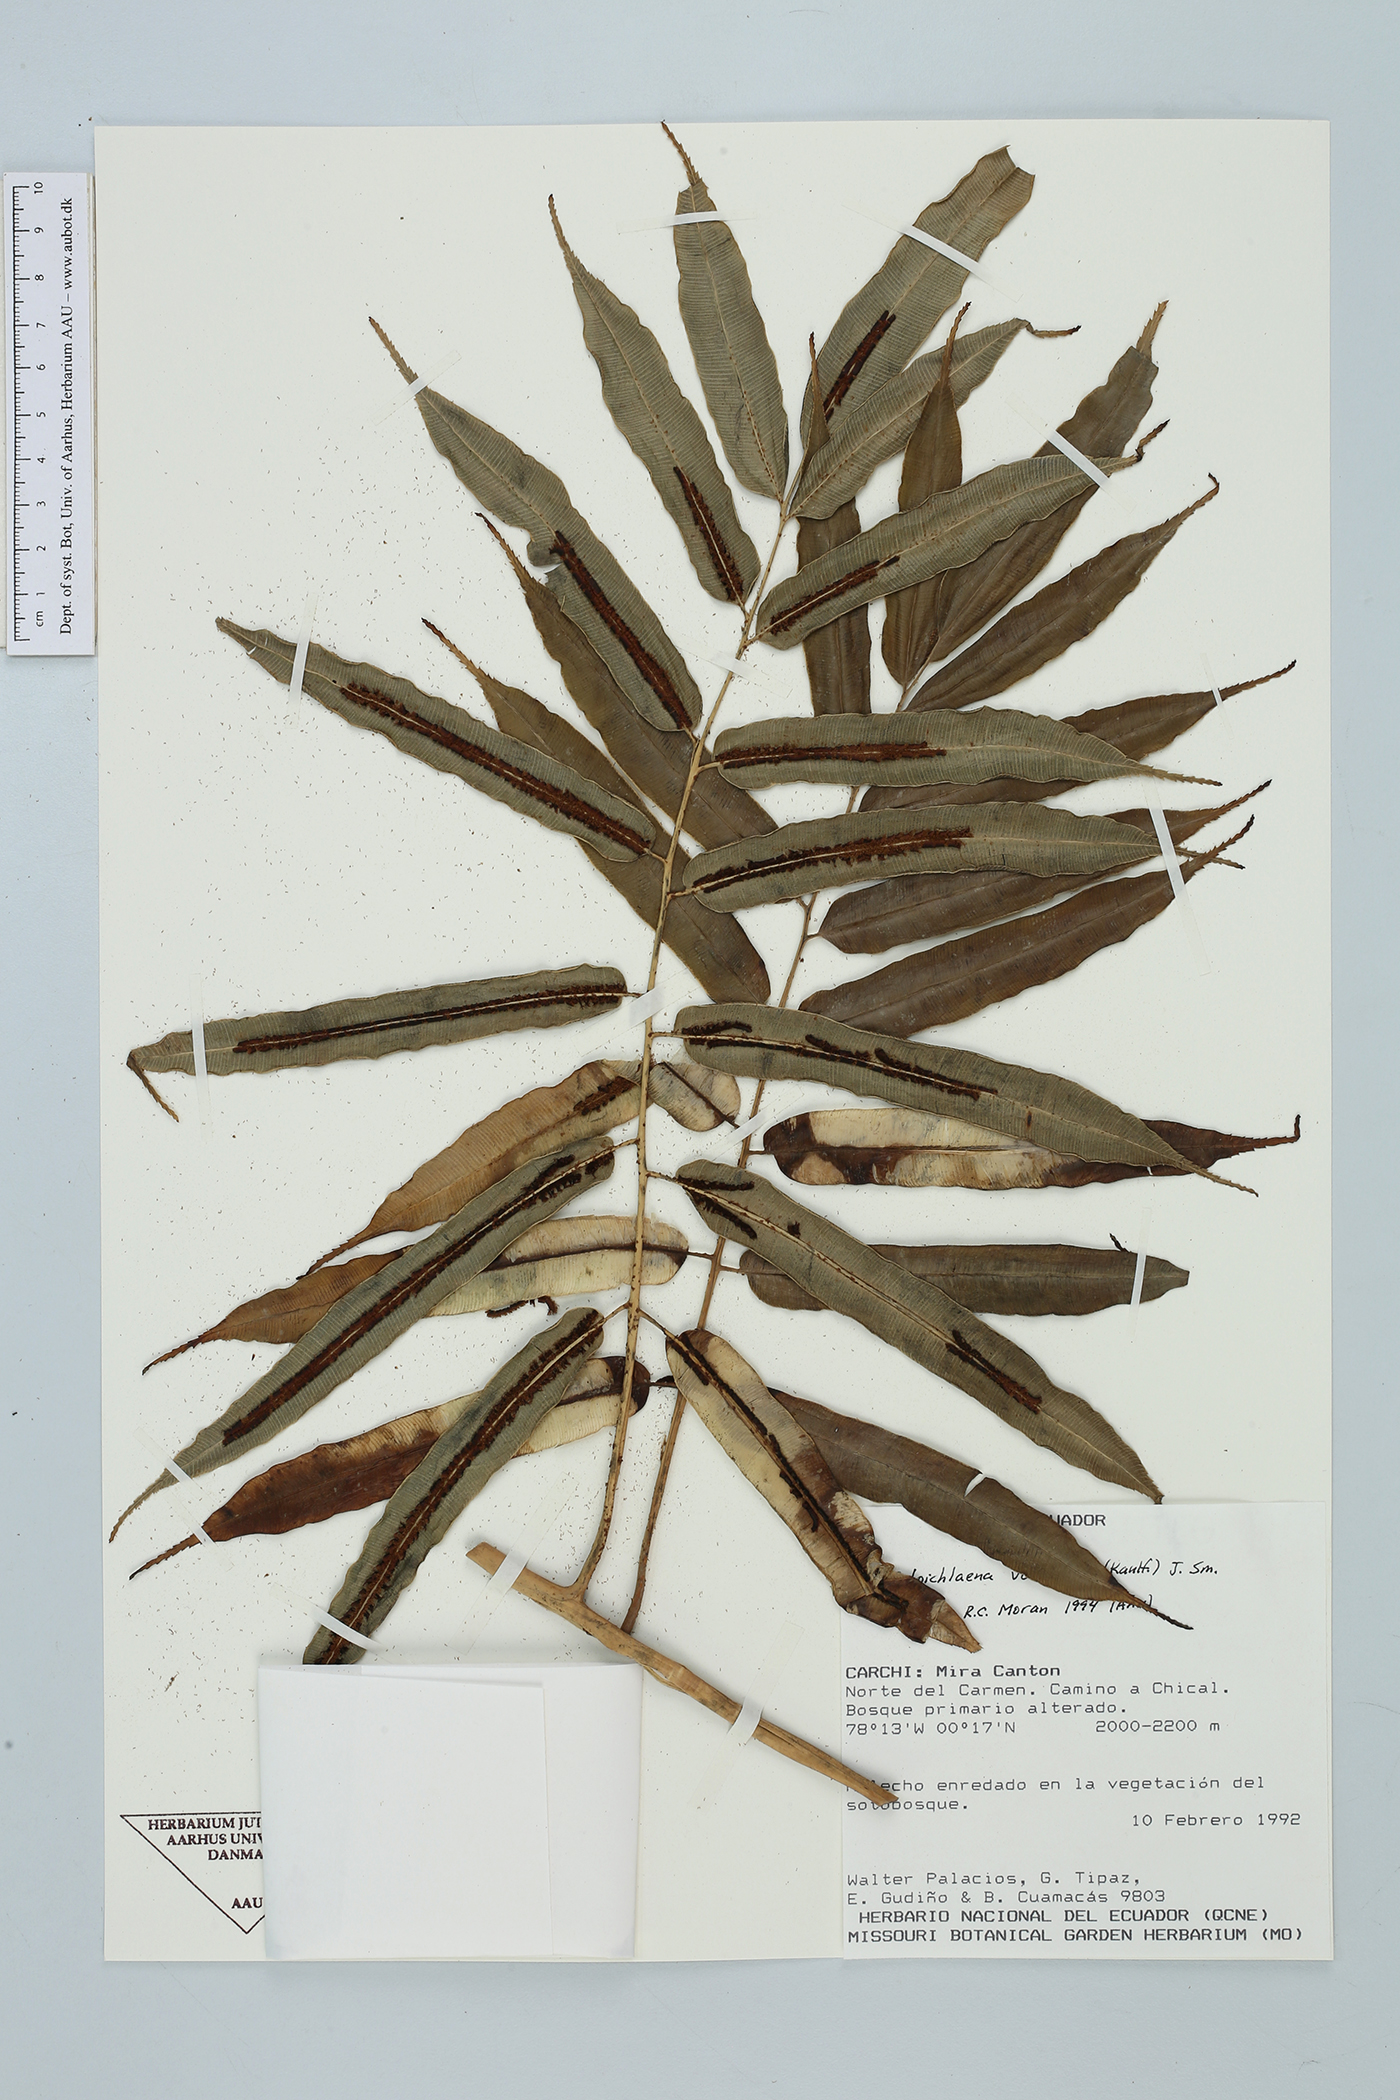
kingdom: Plantae
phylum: Tracheophyta
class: Polypodiopsida
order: Polypodiales
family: Blechnaceae
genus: Salpichlaena
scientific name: Salpichlaena papyrus
